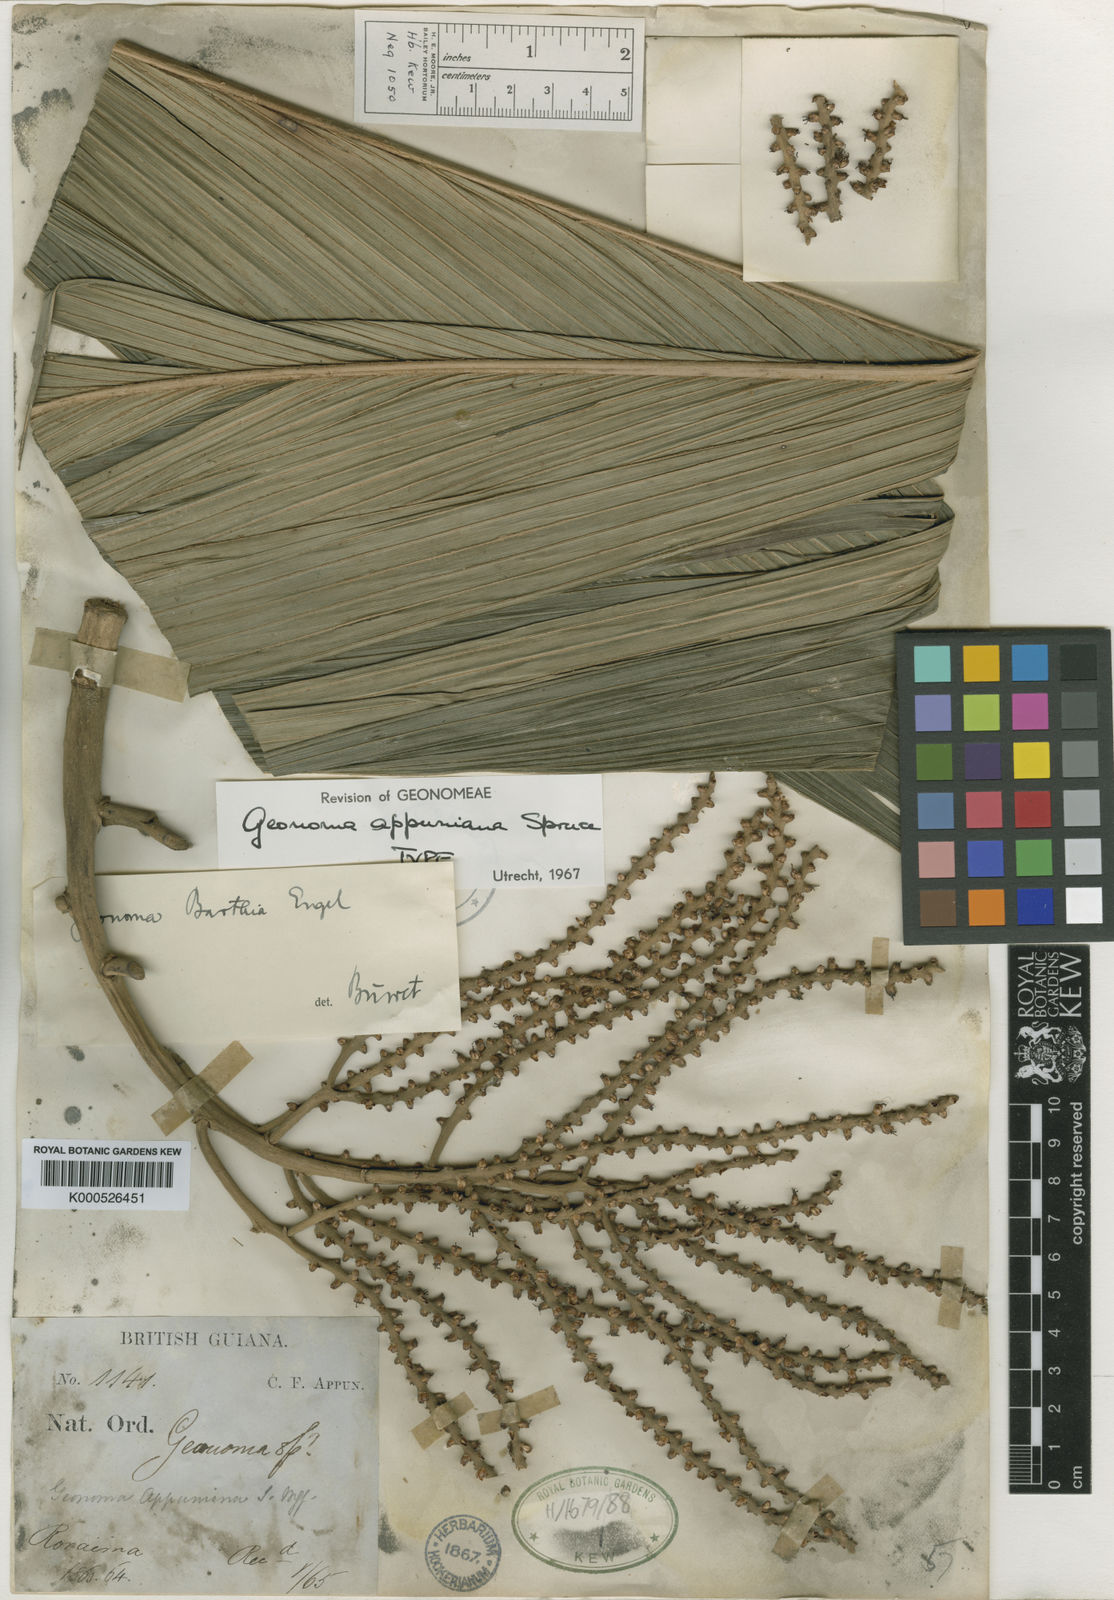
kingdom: Plantae
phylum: Tracheophyta
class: Liliopsida
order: Arecales
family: Arecaceae
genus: Geonoma
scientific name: Geonoma undata
